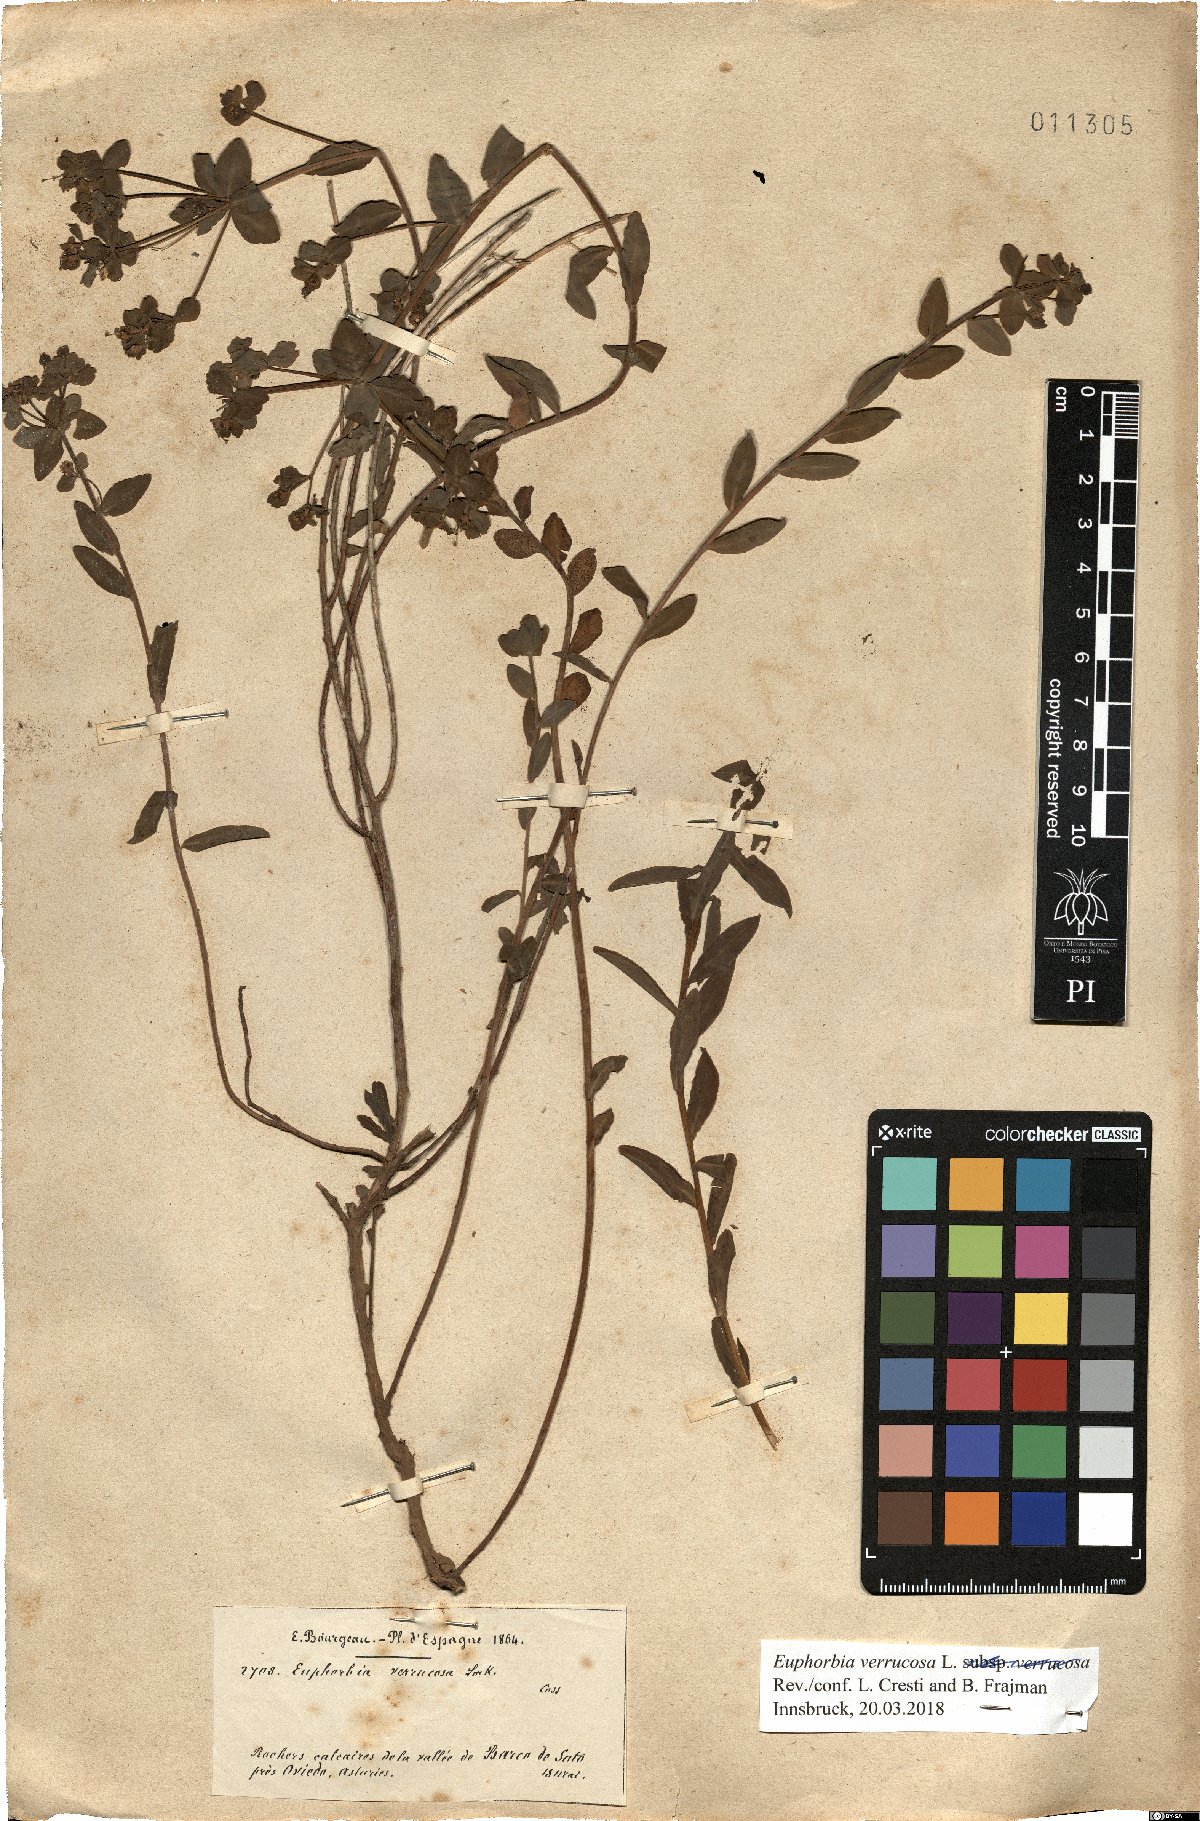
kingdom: Plantae
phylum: Tracheophyta
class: Magnoliopsida
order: Malpighiales
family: Euphorbiaceae
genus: Euphorbia
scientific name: Euphorbia verrucosa
